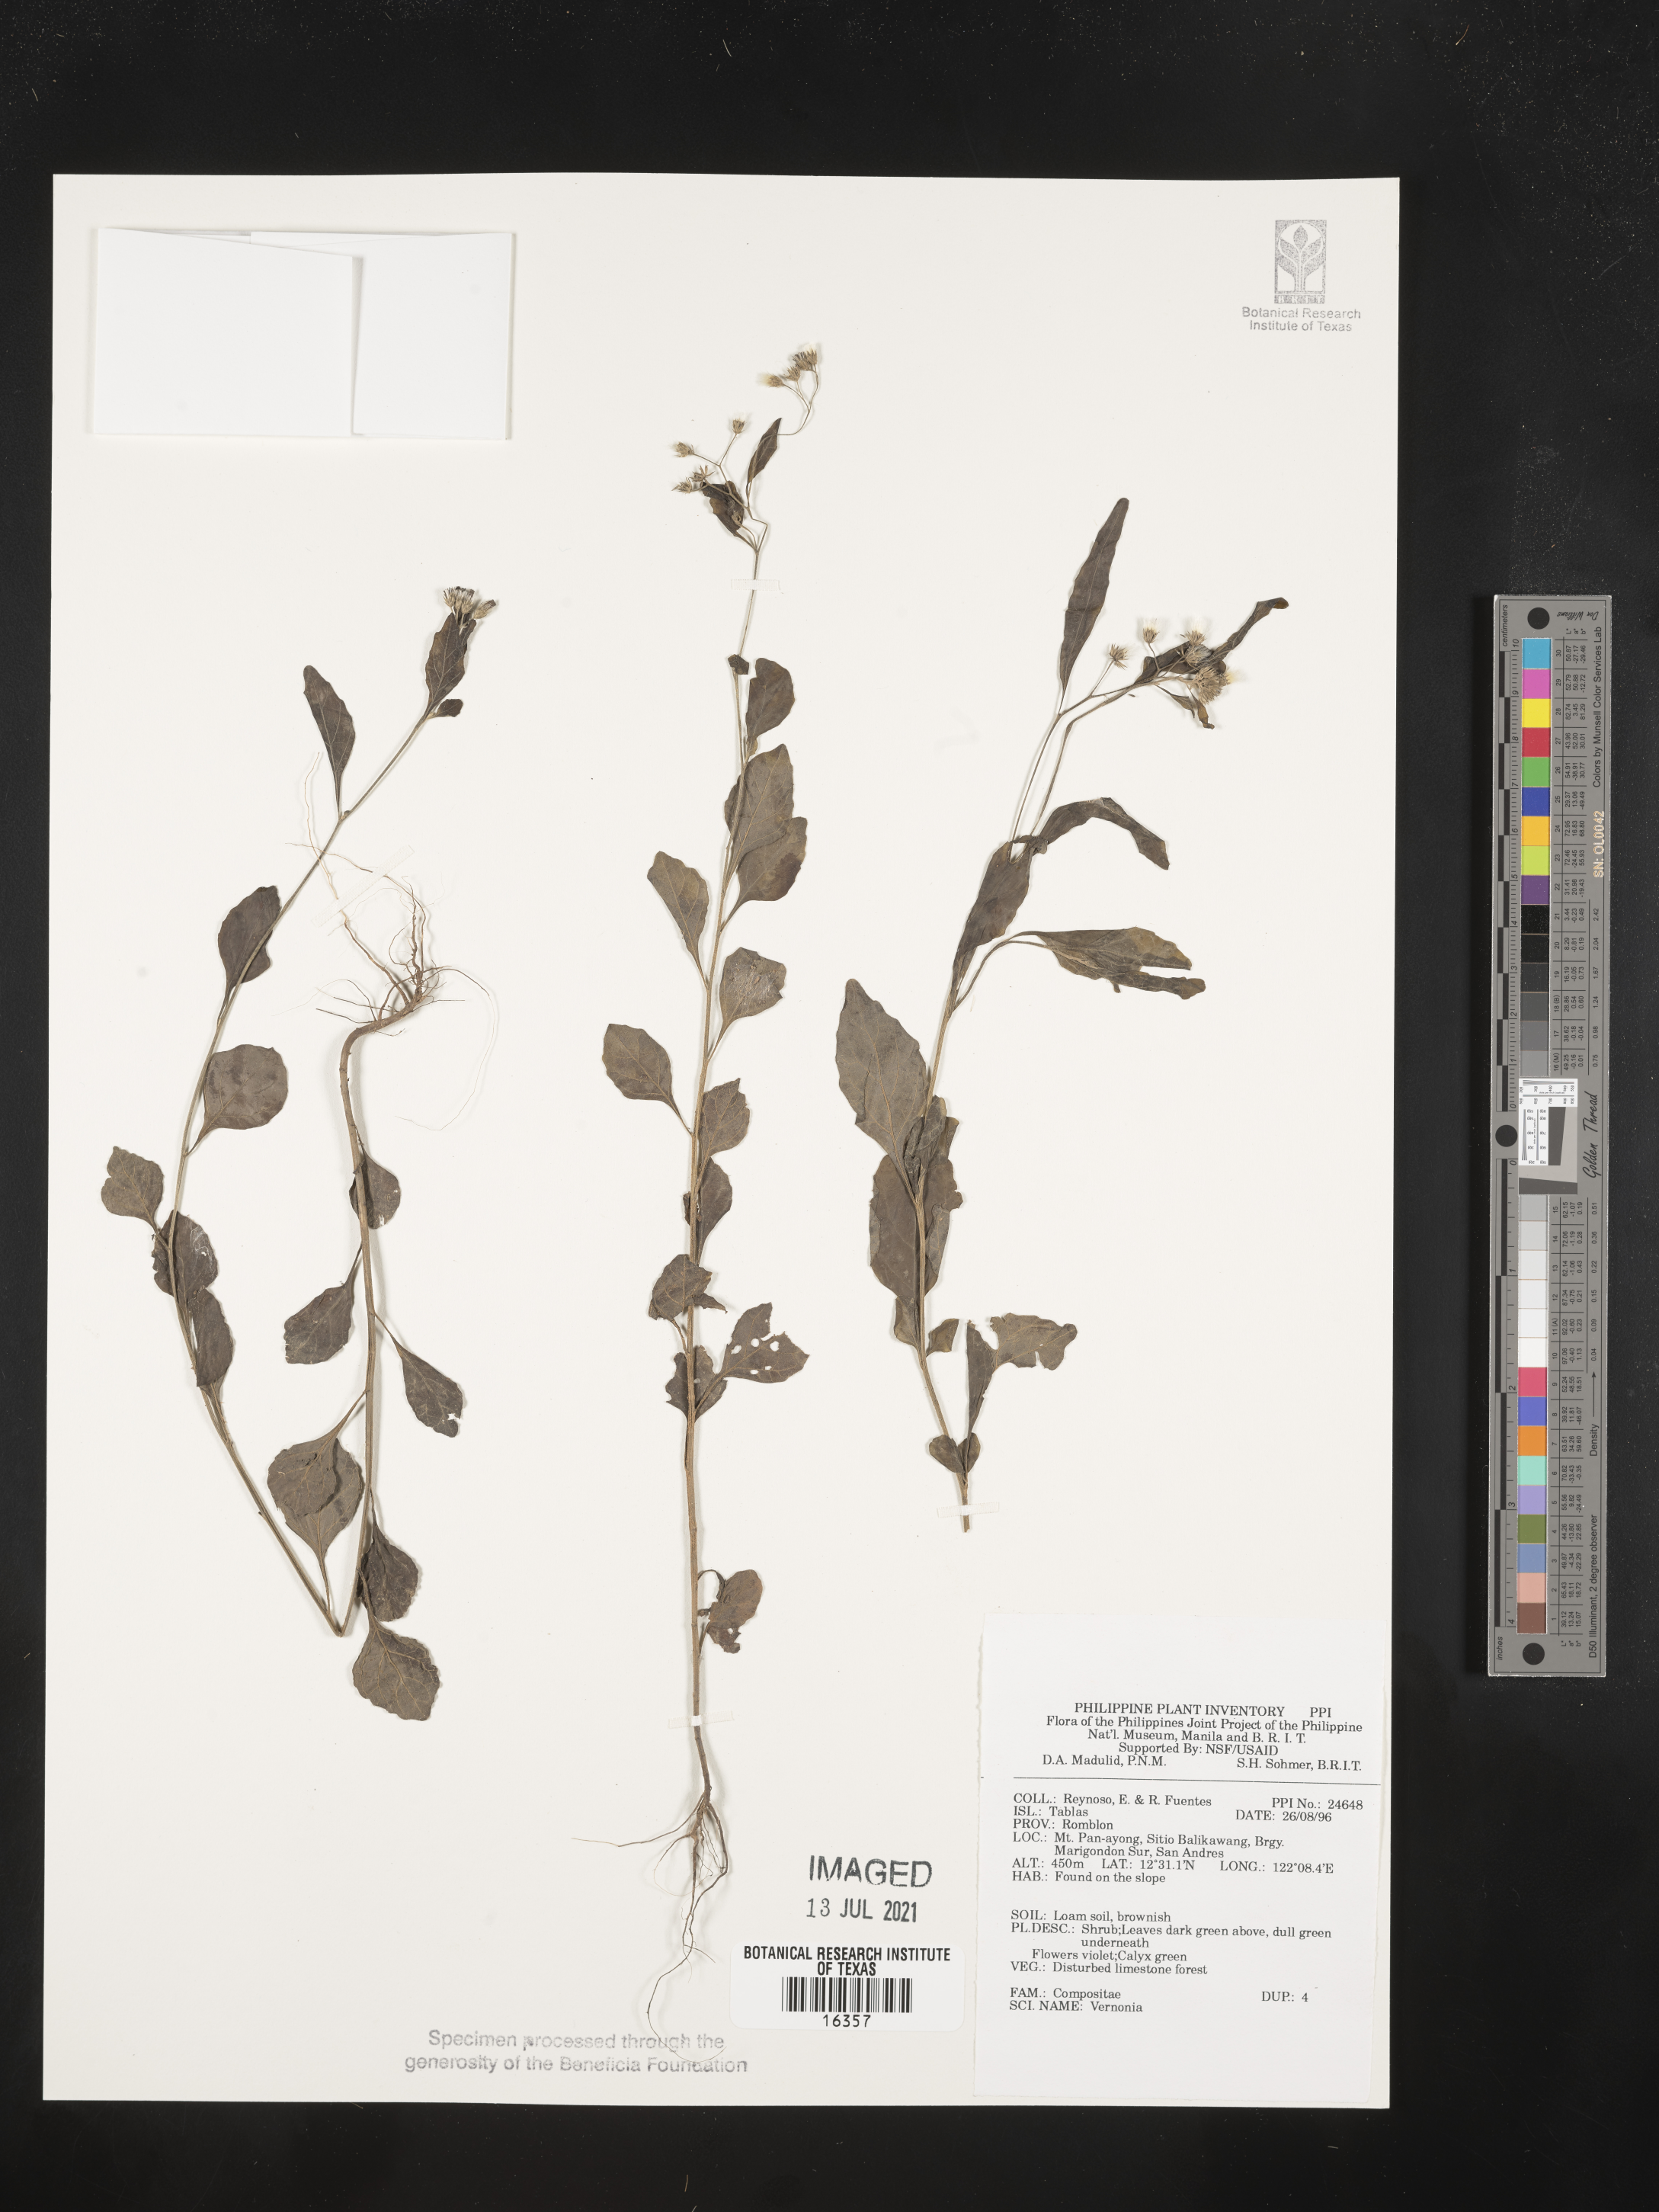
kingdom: Plantae
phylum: Tracheophyta
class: Magnoliopsida
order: Asterales
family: Asteraceae
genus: Vernonia
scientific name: Vernonia
